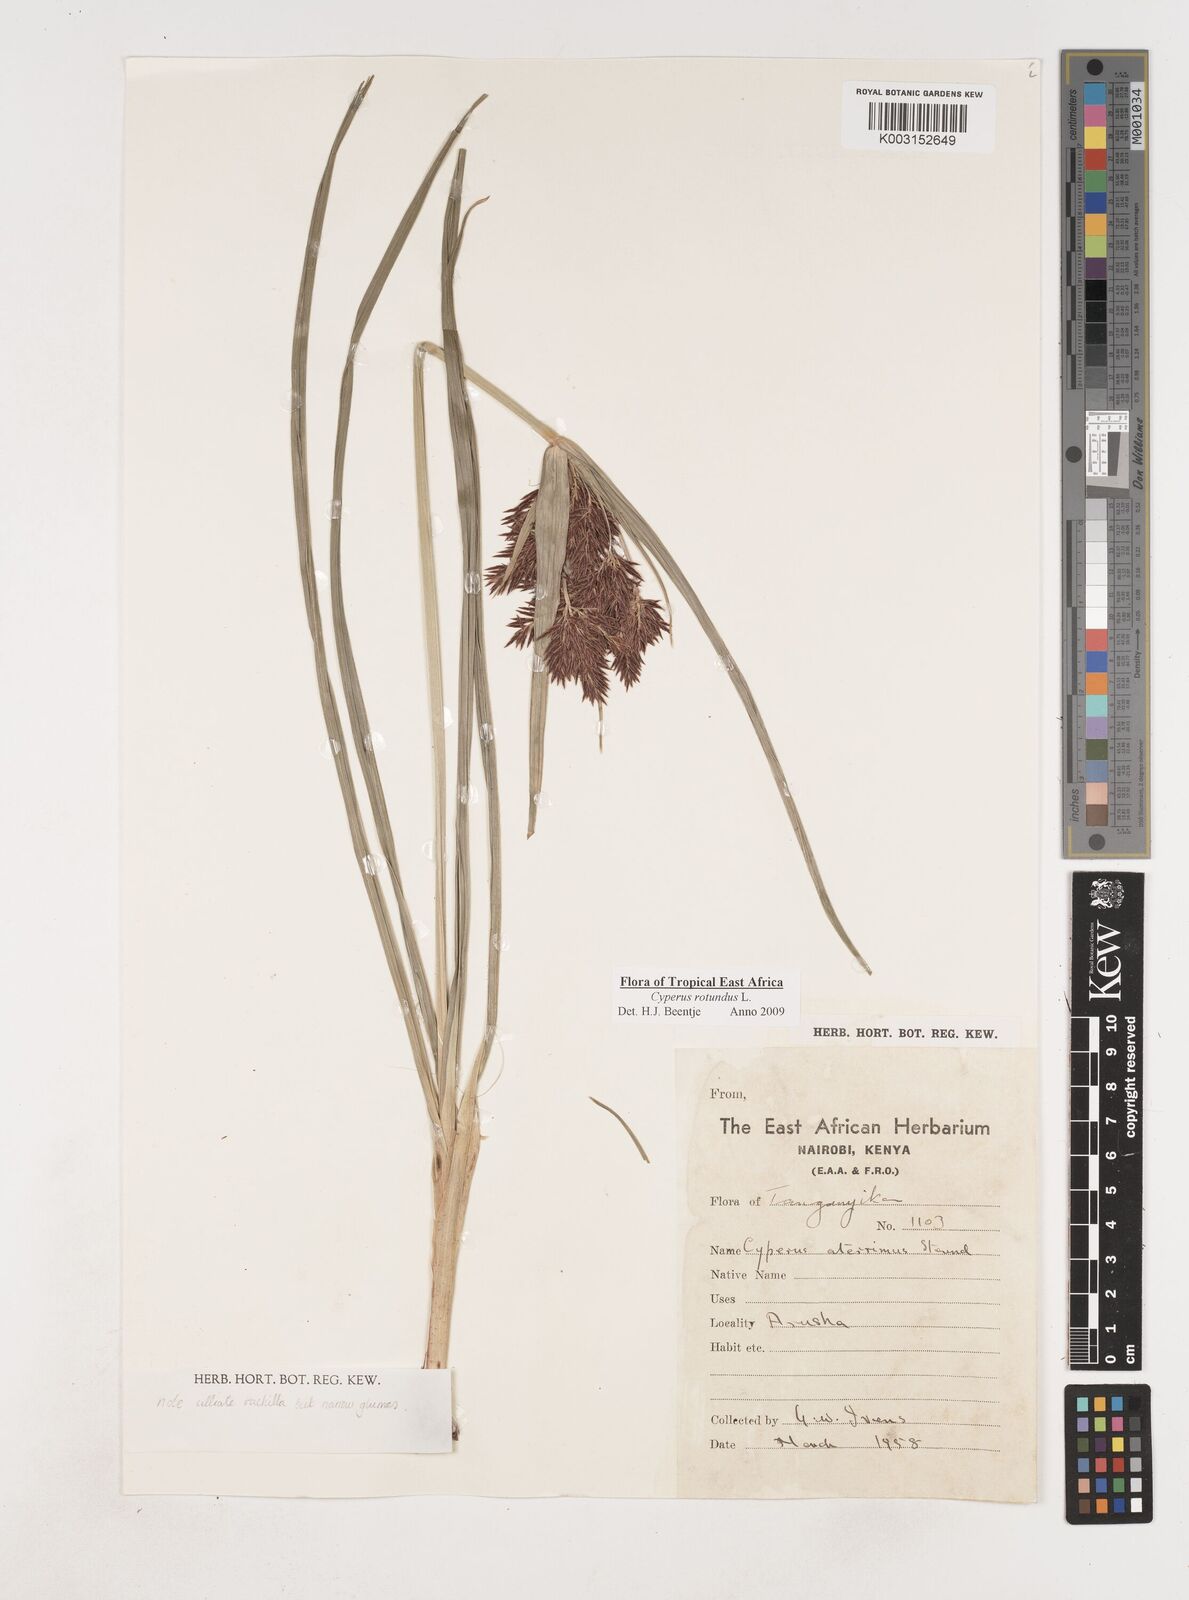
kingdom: Plantae
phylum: Tracheophyta
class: Liliopsida
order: Poales
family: Cyperaceae
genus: Cyperus
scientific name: Cyperus rotundus
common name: Nutgrass
